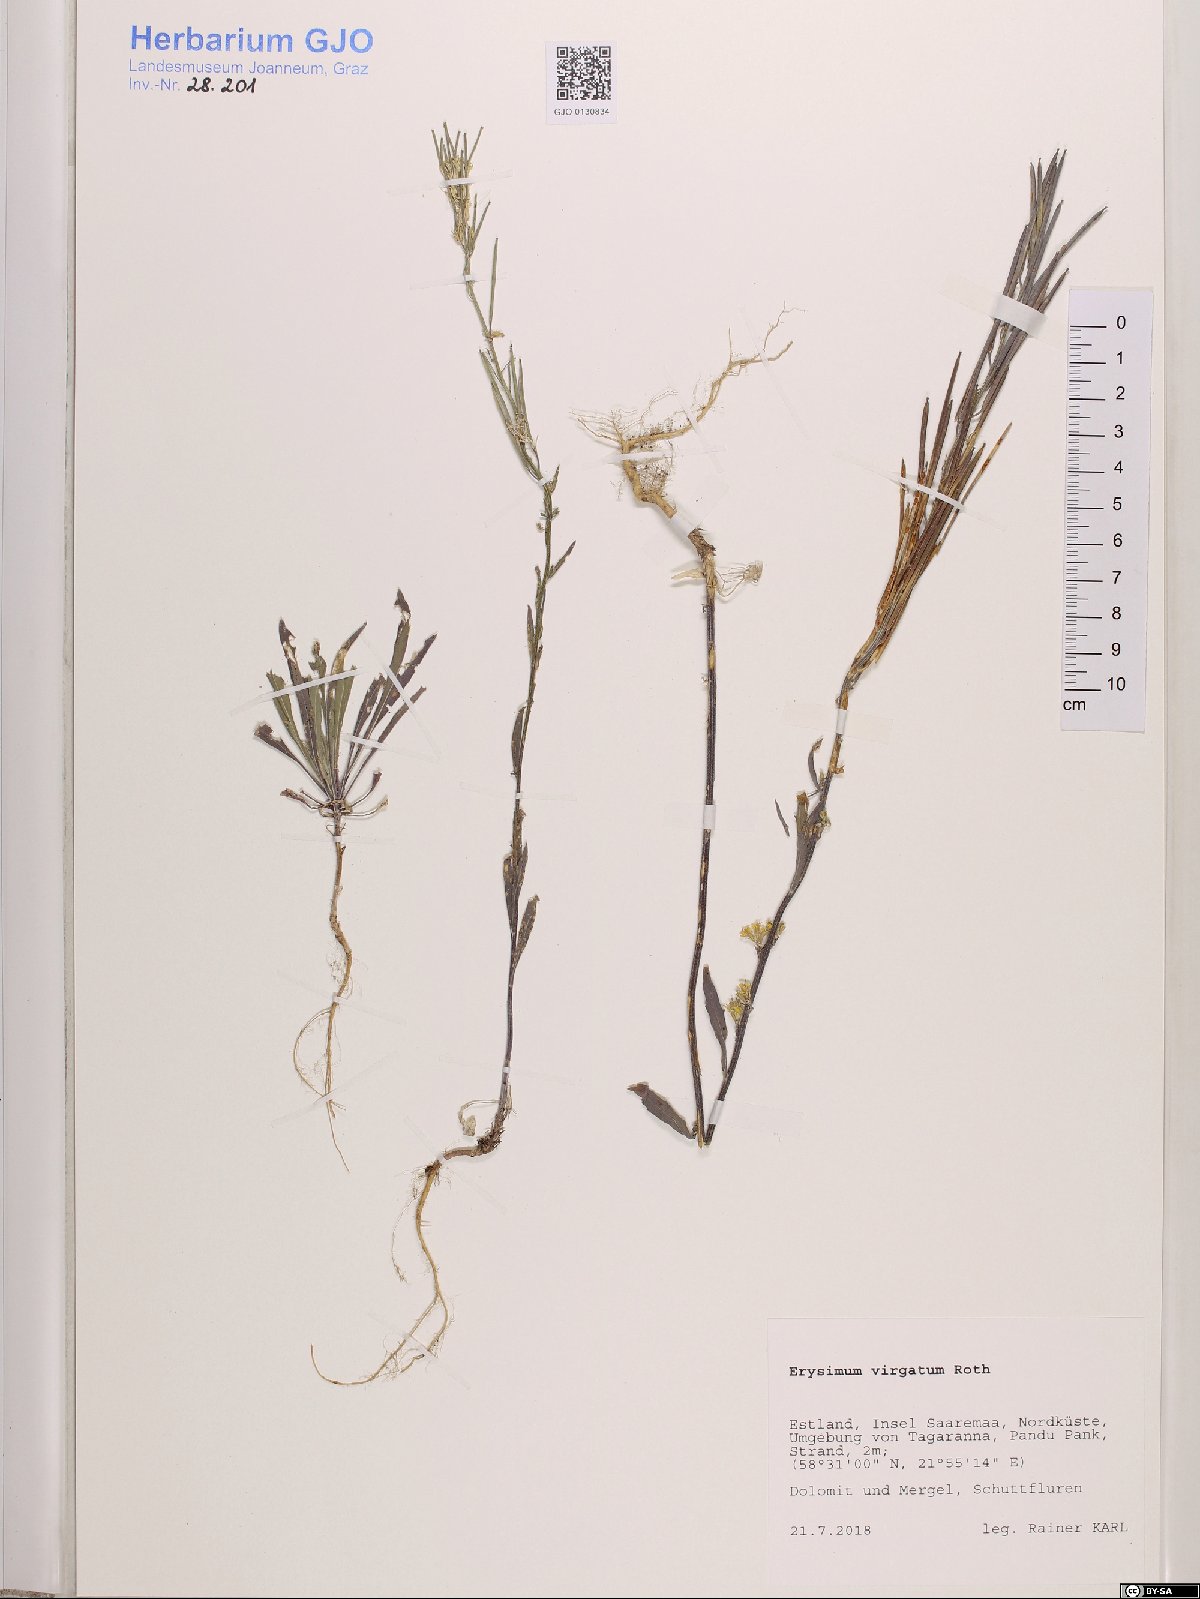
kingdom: Plantae
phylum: Tracheophyta
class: Magnoliopsida
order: Brassicales
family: Brassicaceae
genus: Erysimum
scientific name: Erysimum virgatum
